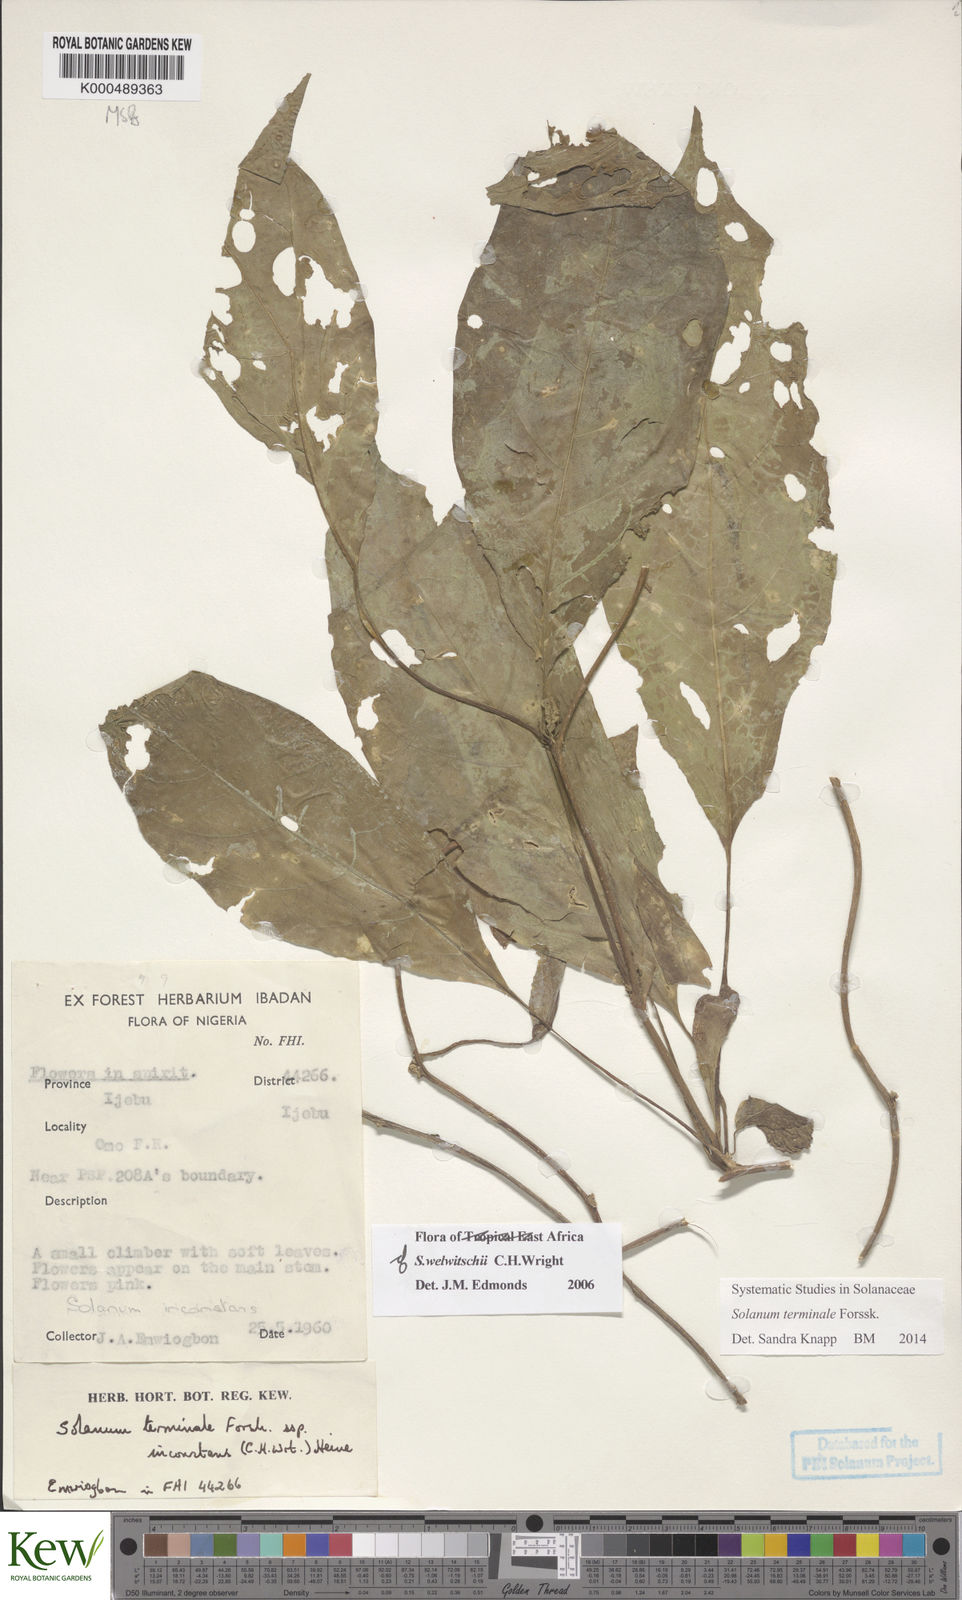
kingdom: Plantae
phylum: Tracheophyta
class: Magnoliopsida
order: Solanales
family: Solanaceae
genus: Solanum
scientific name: Solanum terminale
